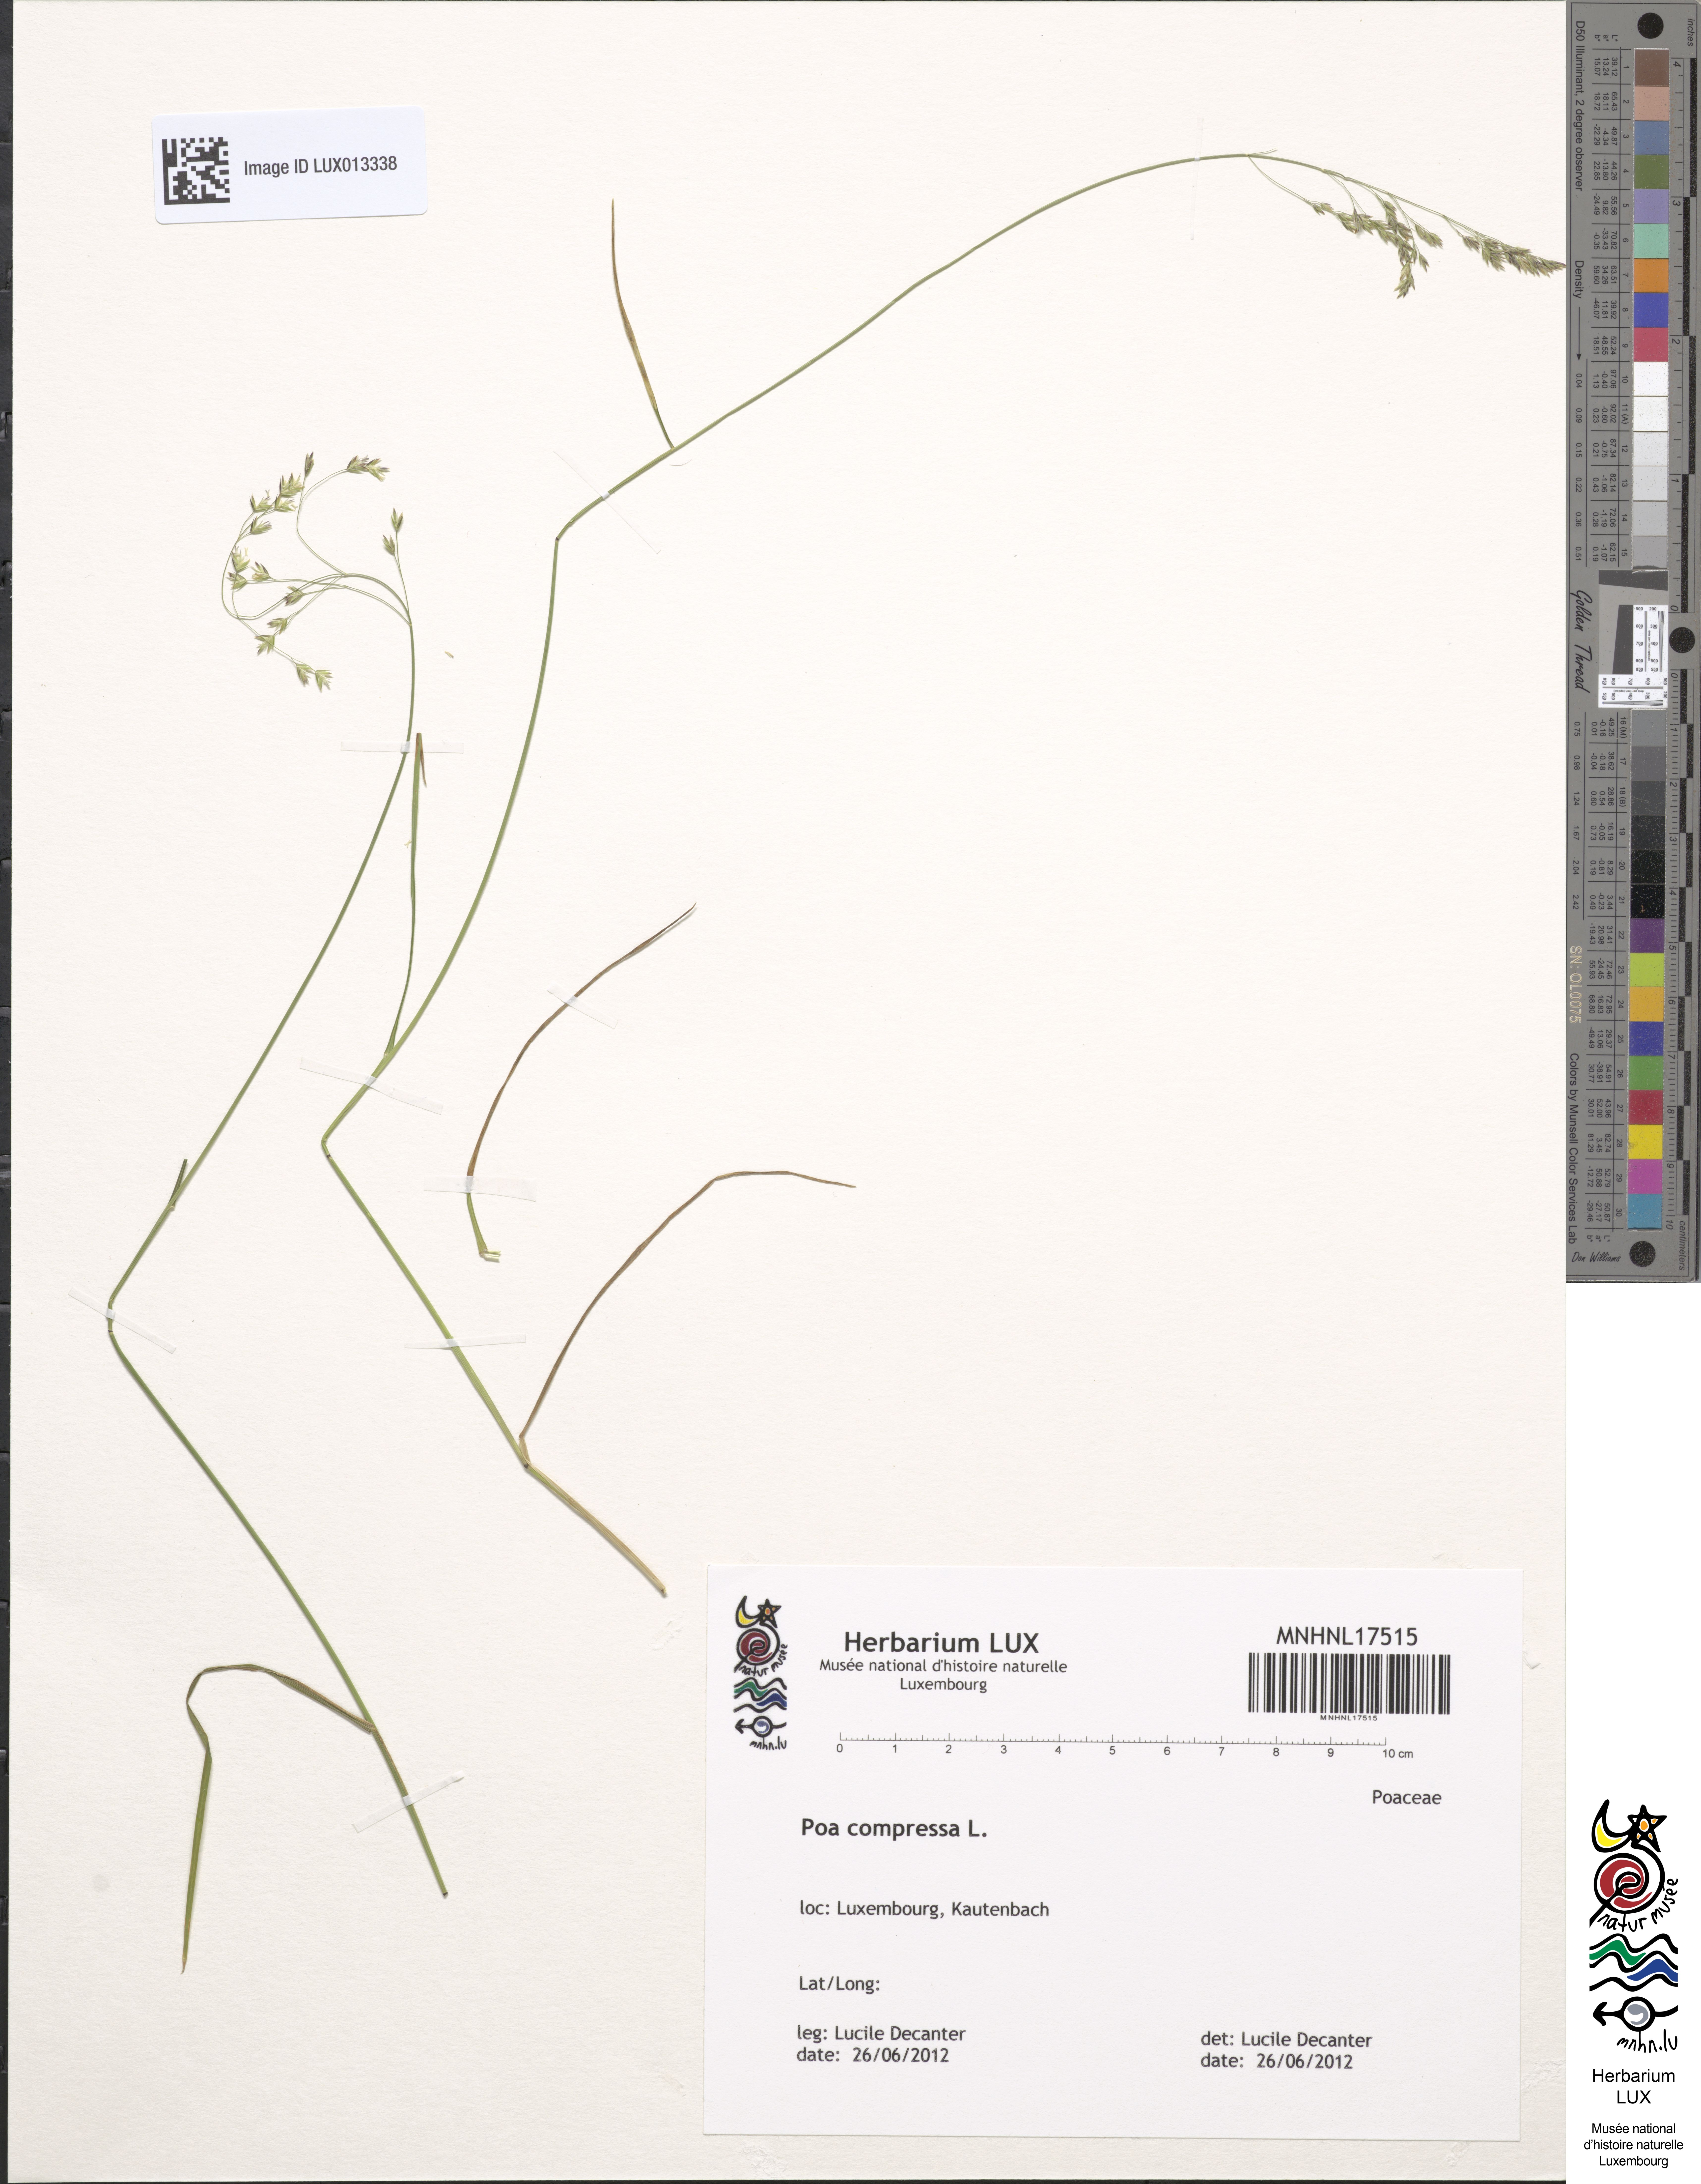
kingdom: Plantae
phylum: Tracheophyta
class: Liliopsida
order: Poales
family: Poaceae
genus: Poa
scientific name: Poa compressa
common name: Canada bluegrass
